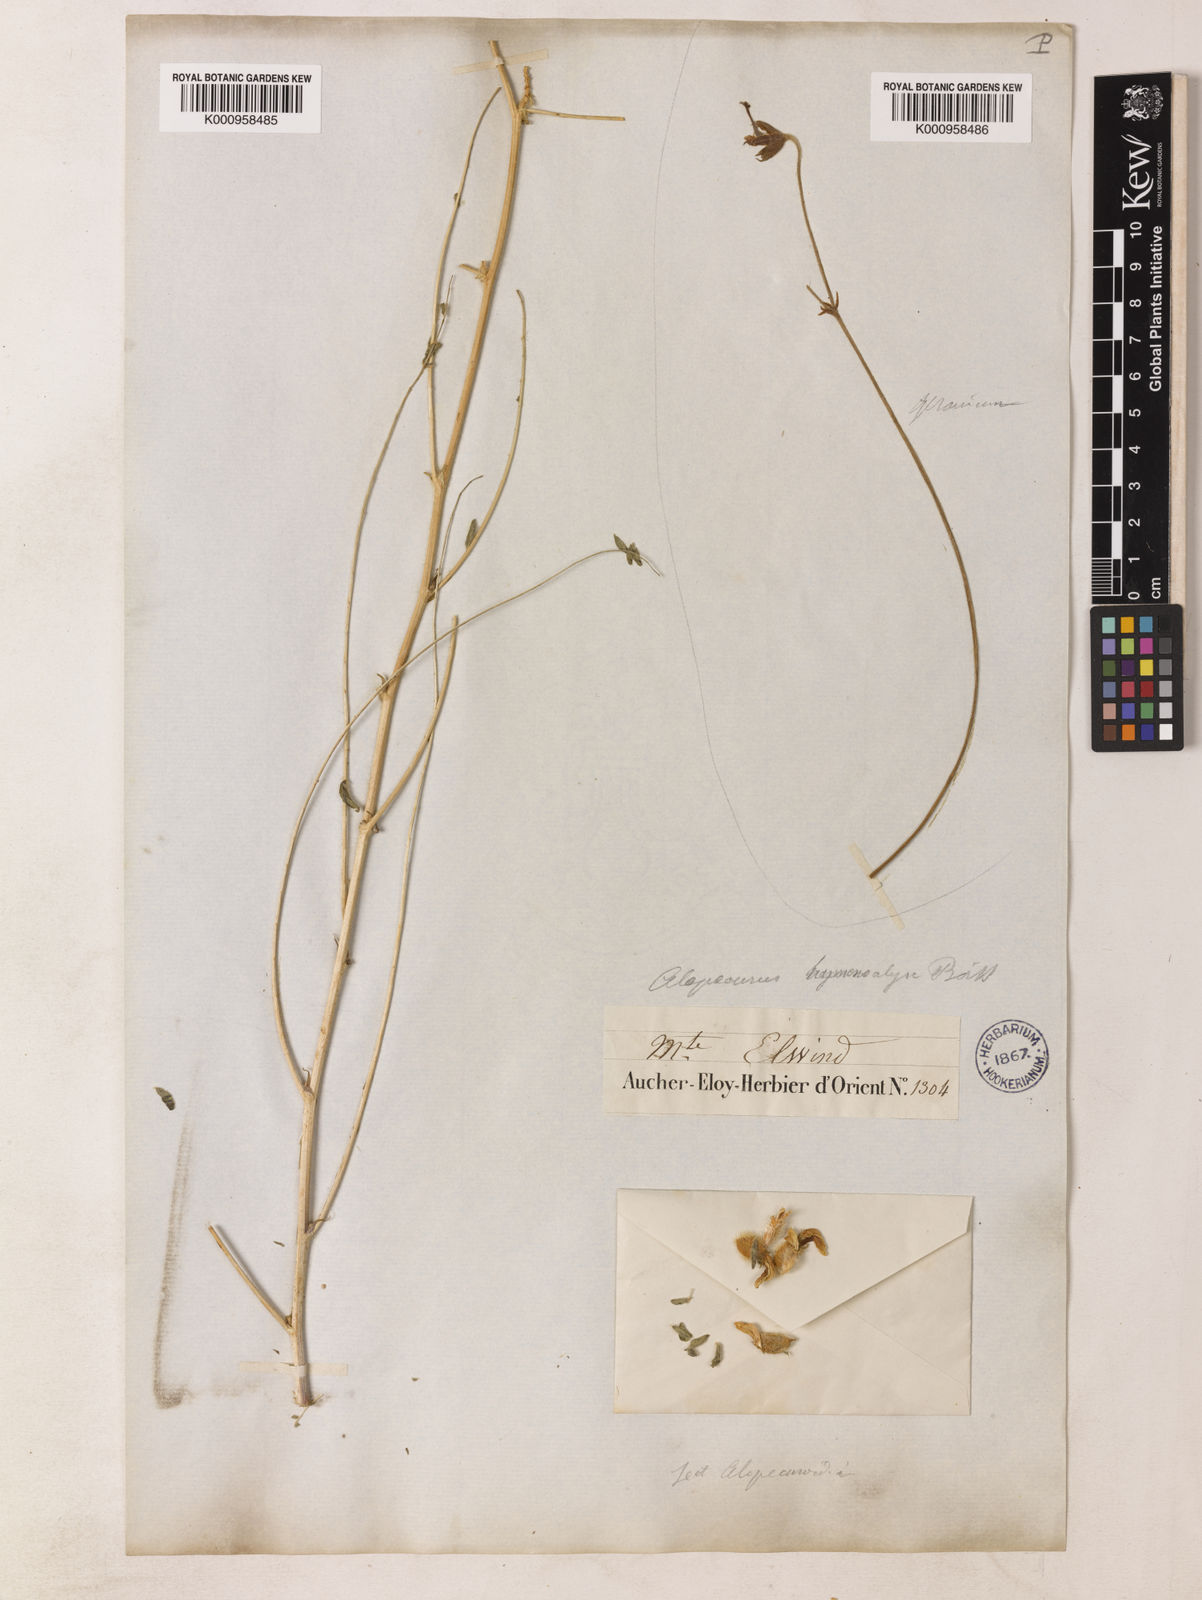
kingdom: Plantae
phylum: Tracheophyta
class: Magnoliopsida
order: Fabales
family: Fabaceae
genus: Astragalus
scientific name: Astragalus hymenocalyx
